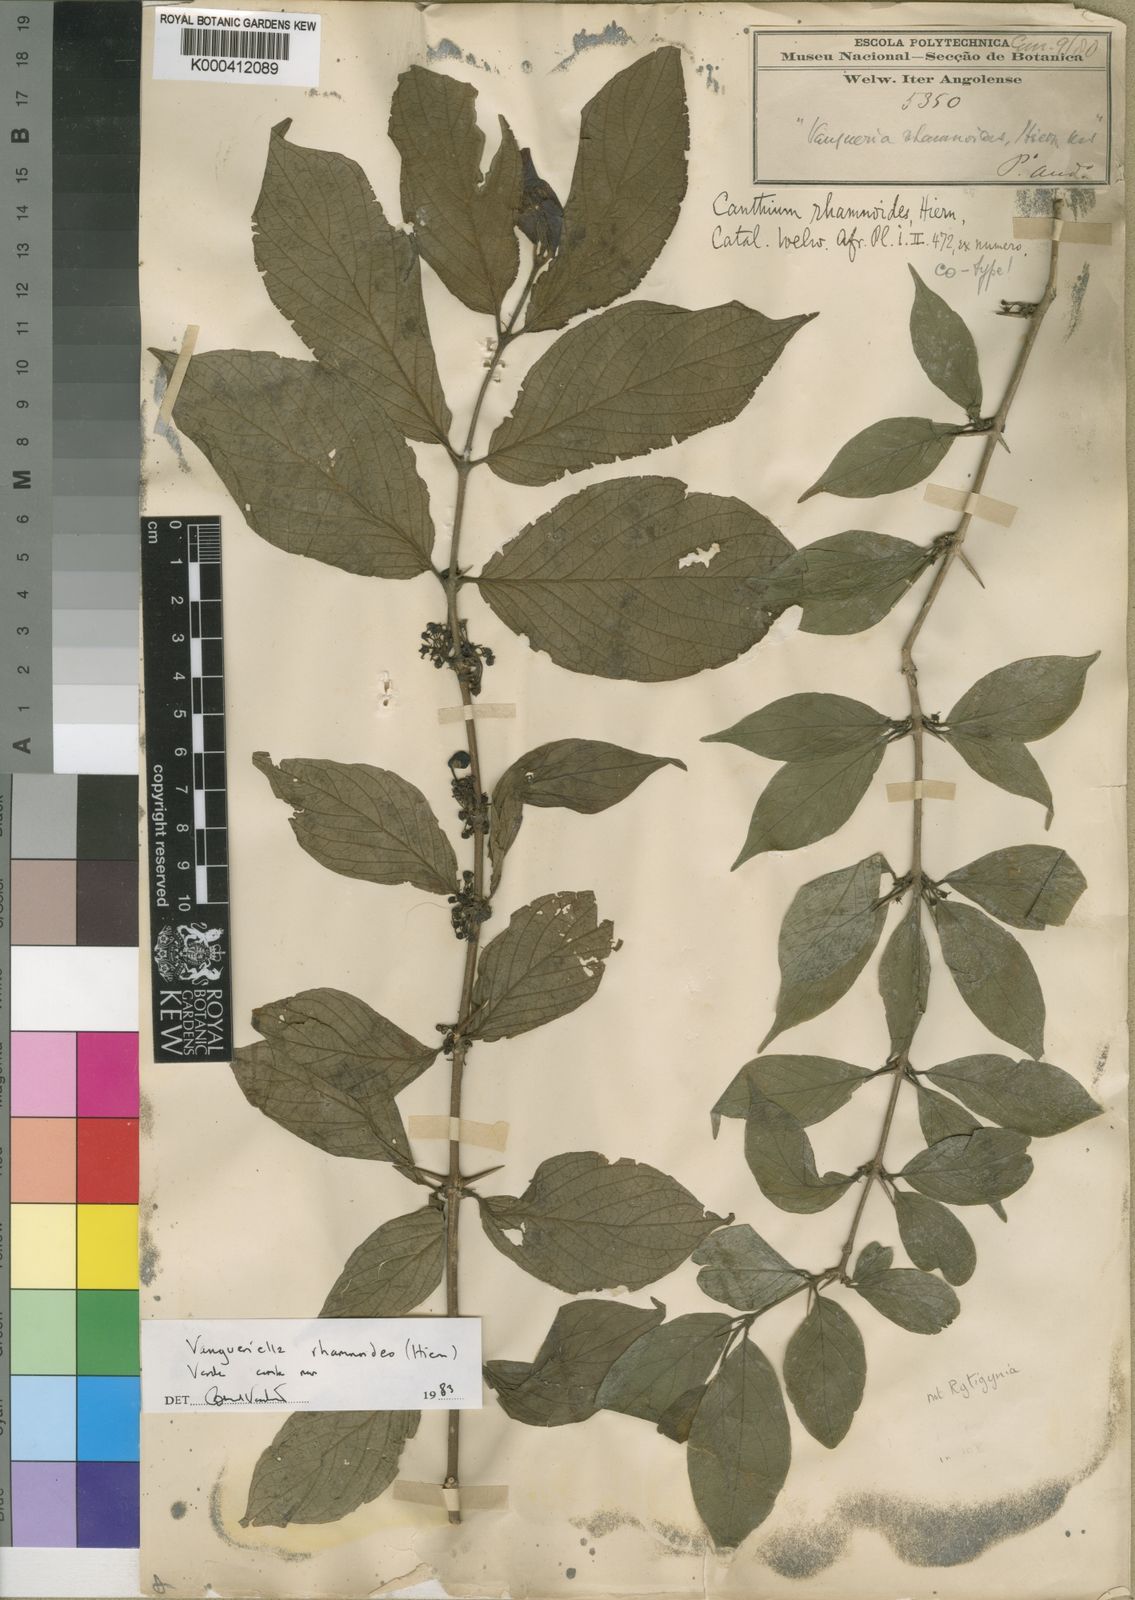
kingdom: Plantae
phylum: Tracheophyta
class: Magnoliopsida
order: Gentianales
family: Rubiaceae
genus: Vangueriella
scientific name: Vangueriella rhamnoides
